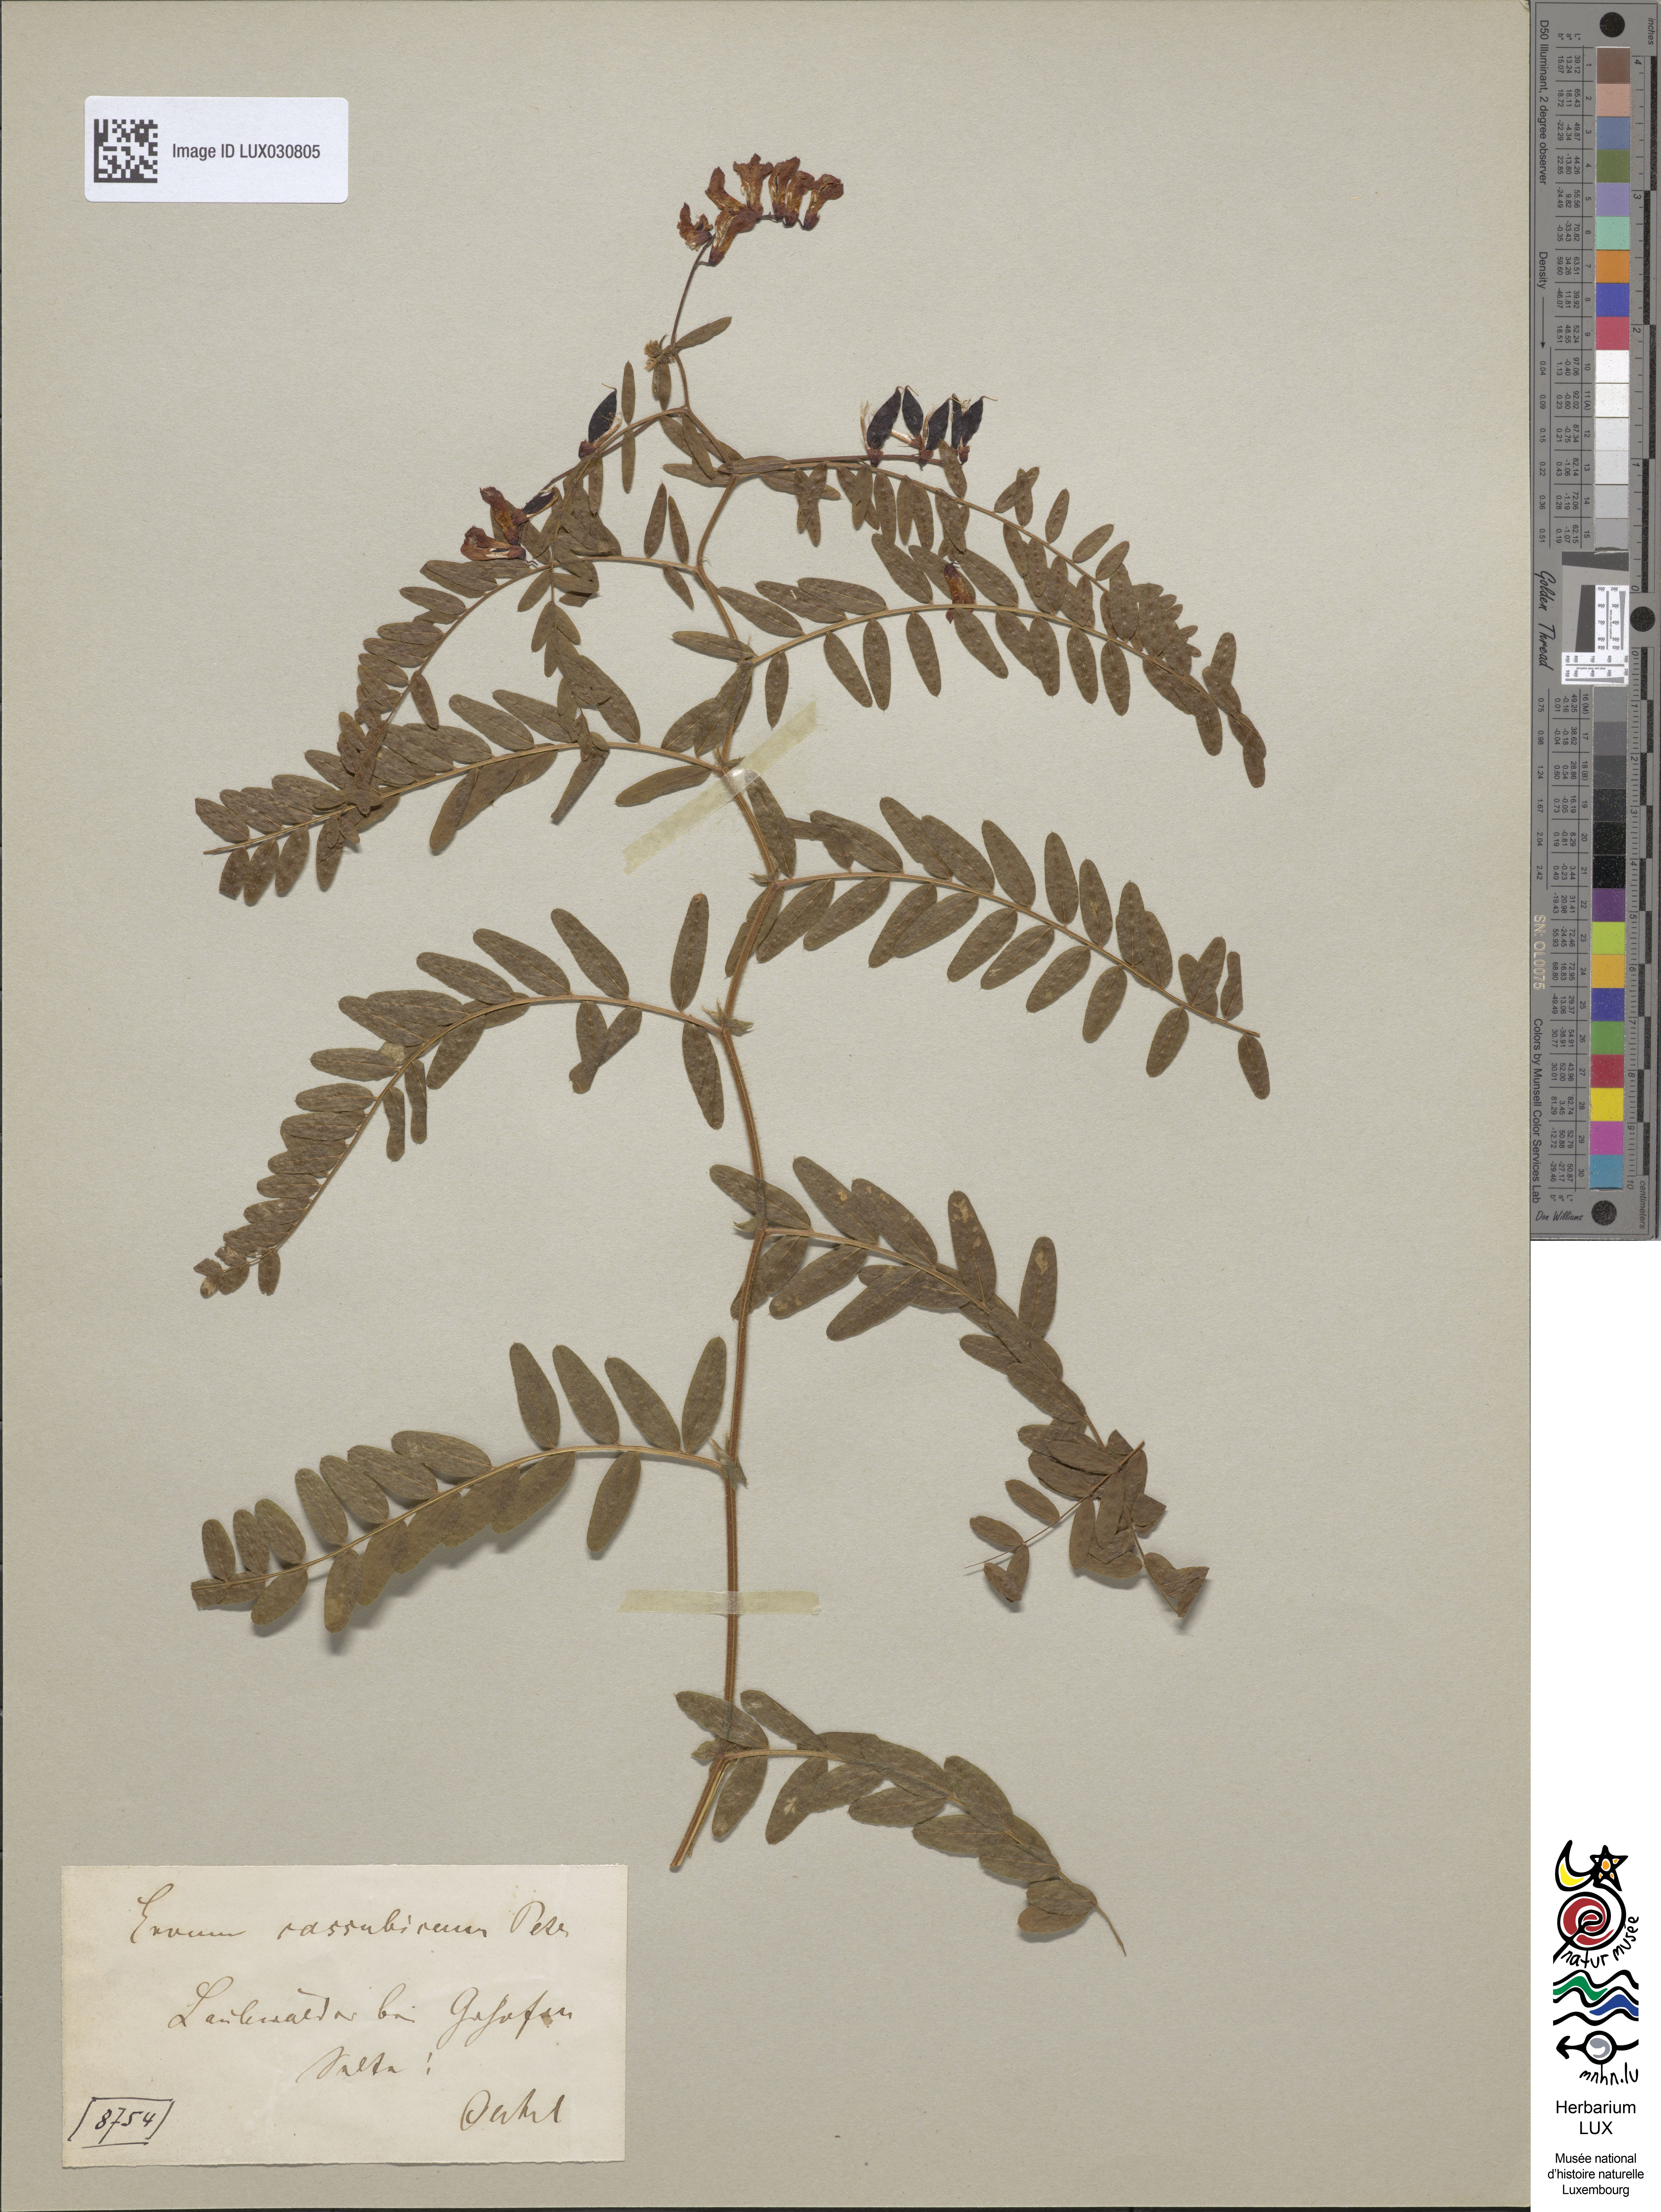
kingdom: Plantae
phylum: Tracheophyta
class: Magnoliopsida
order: Fabales
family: Fabaceae
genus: Vicia
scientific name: Vicia cassubica
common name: Danzig vetch
